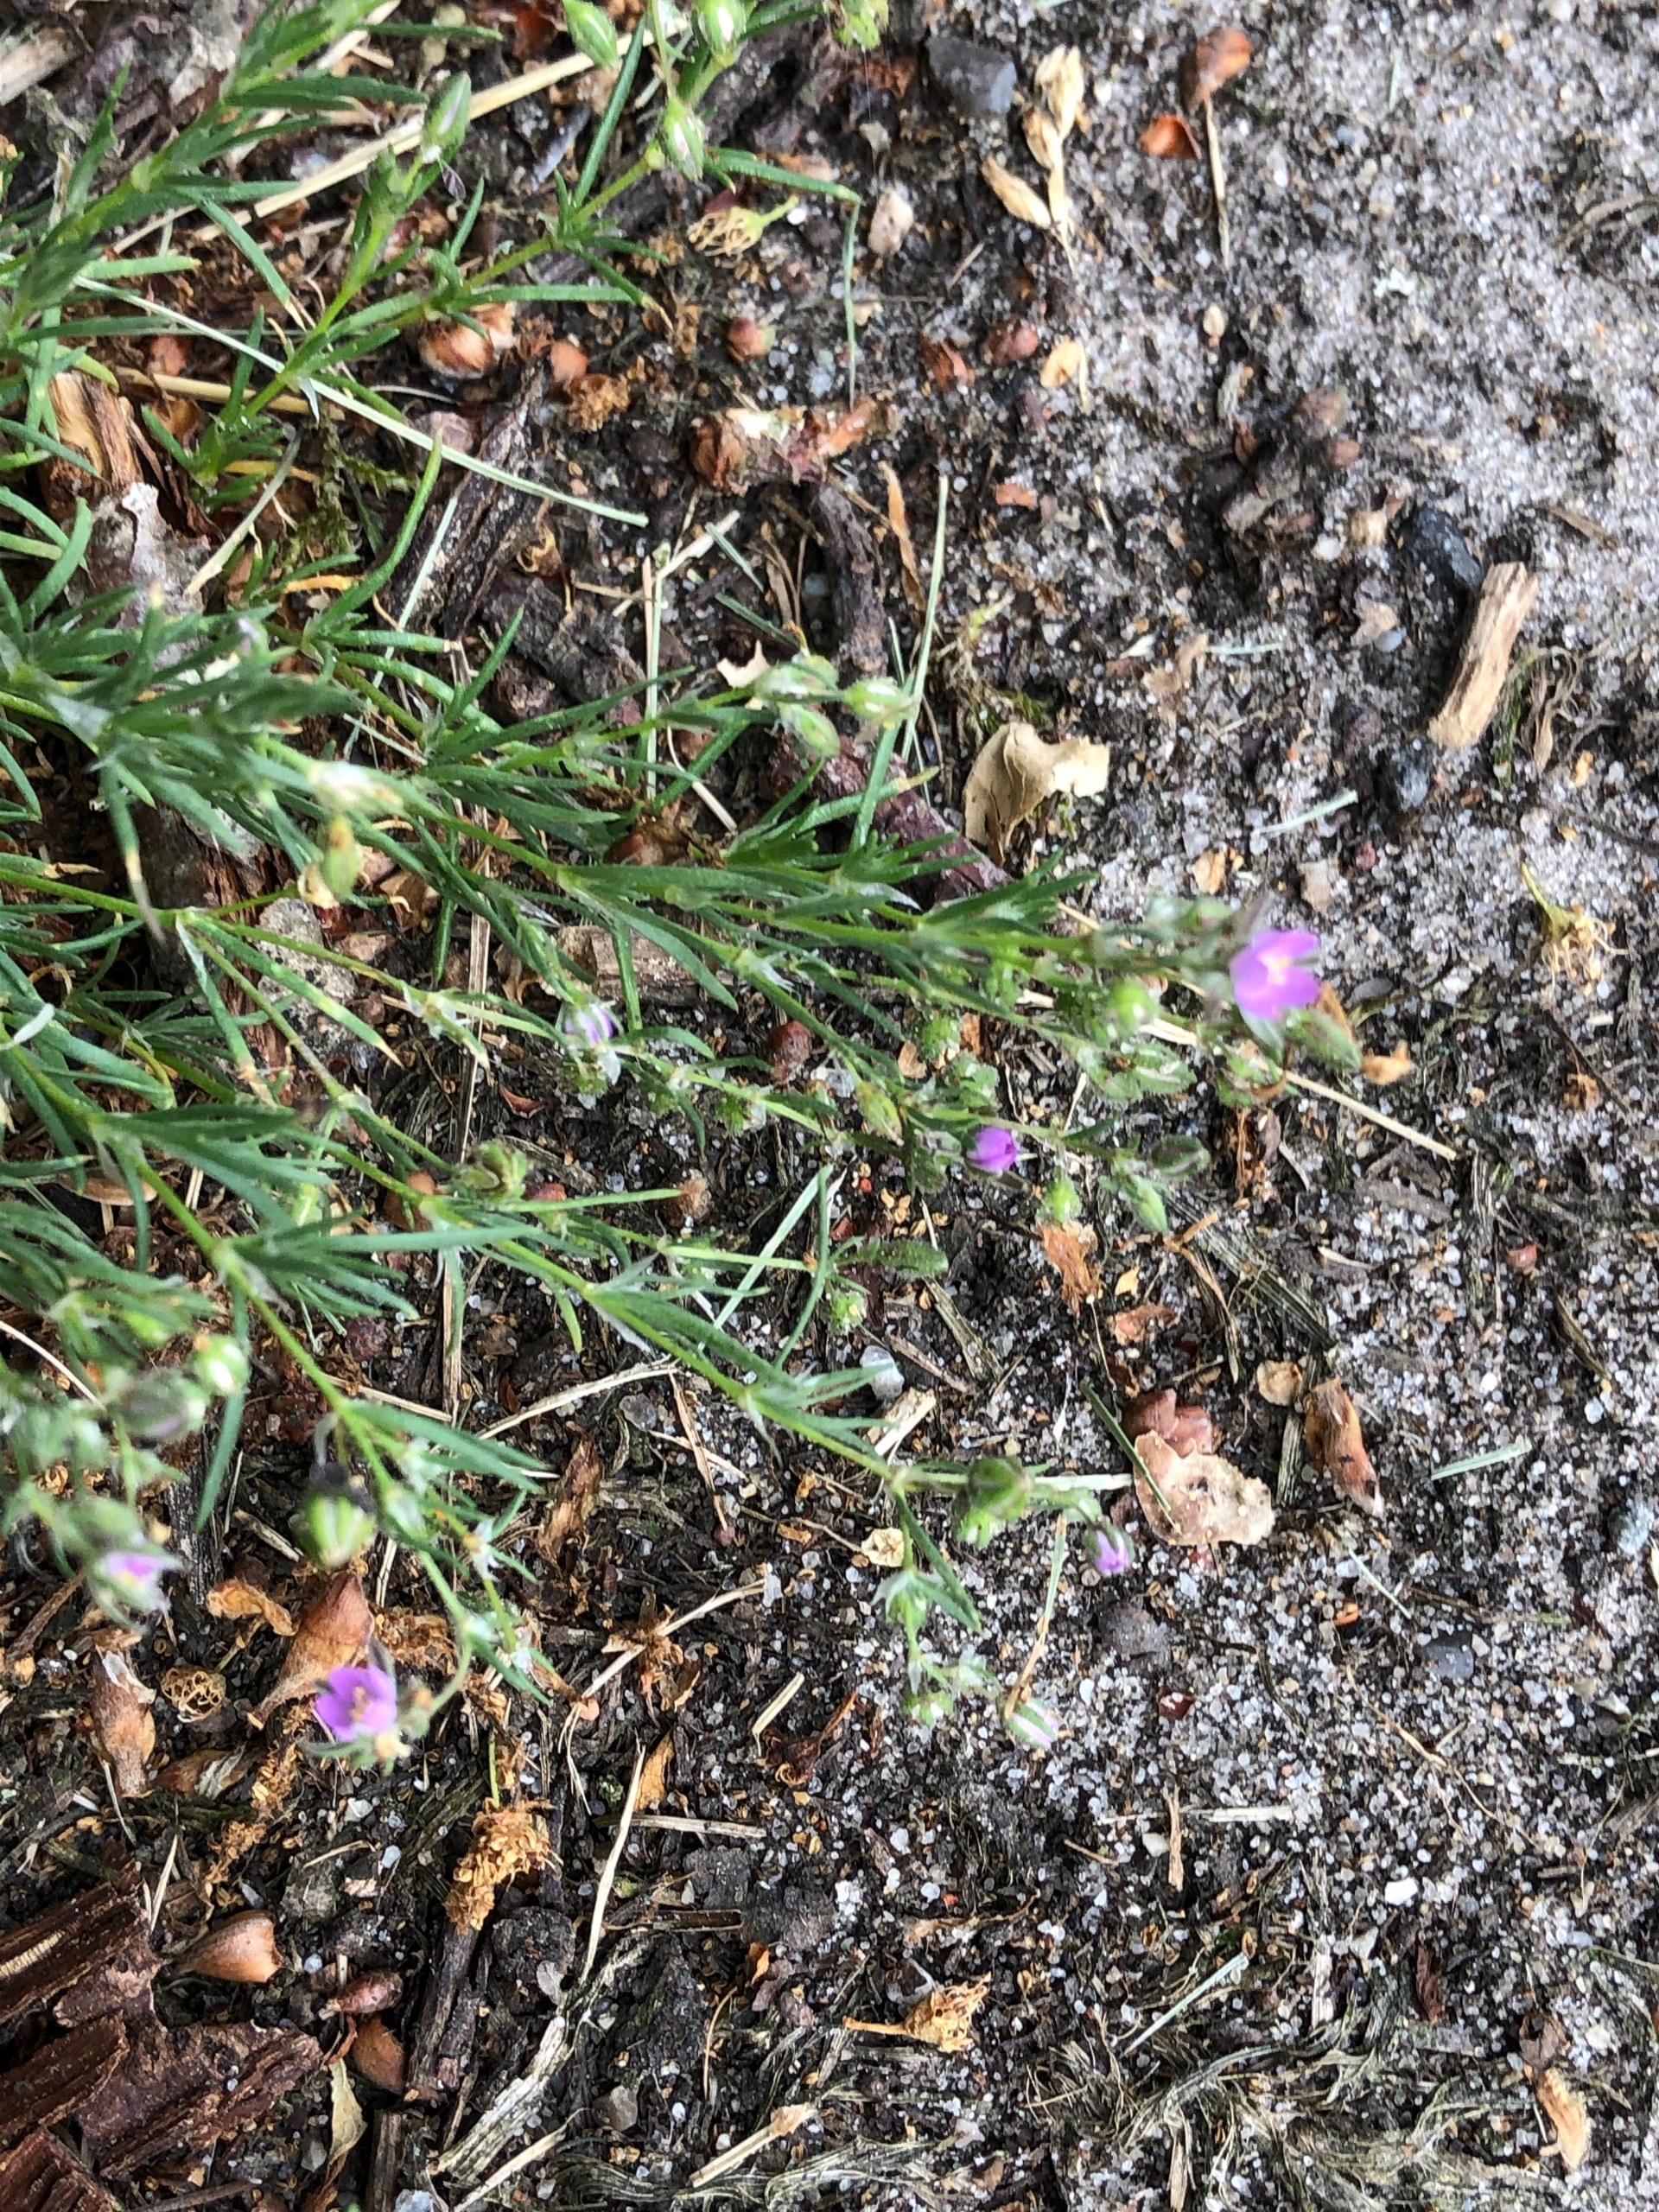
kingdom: Plantae
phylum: Tracheophyta
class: Magnoliopsida
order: Caryophyllales
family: Caryophyllaceae
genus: Spergularia
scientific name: Spergularia rubra
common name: Mark-hindeknæ
